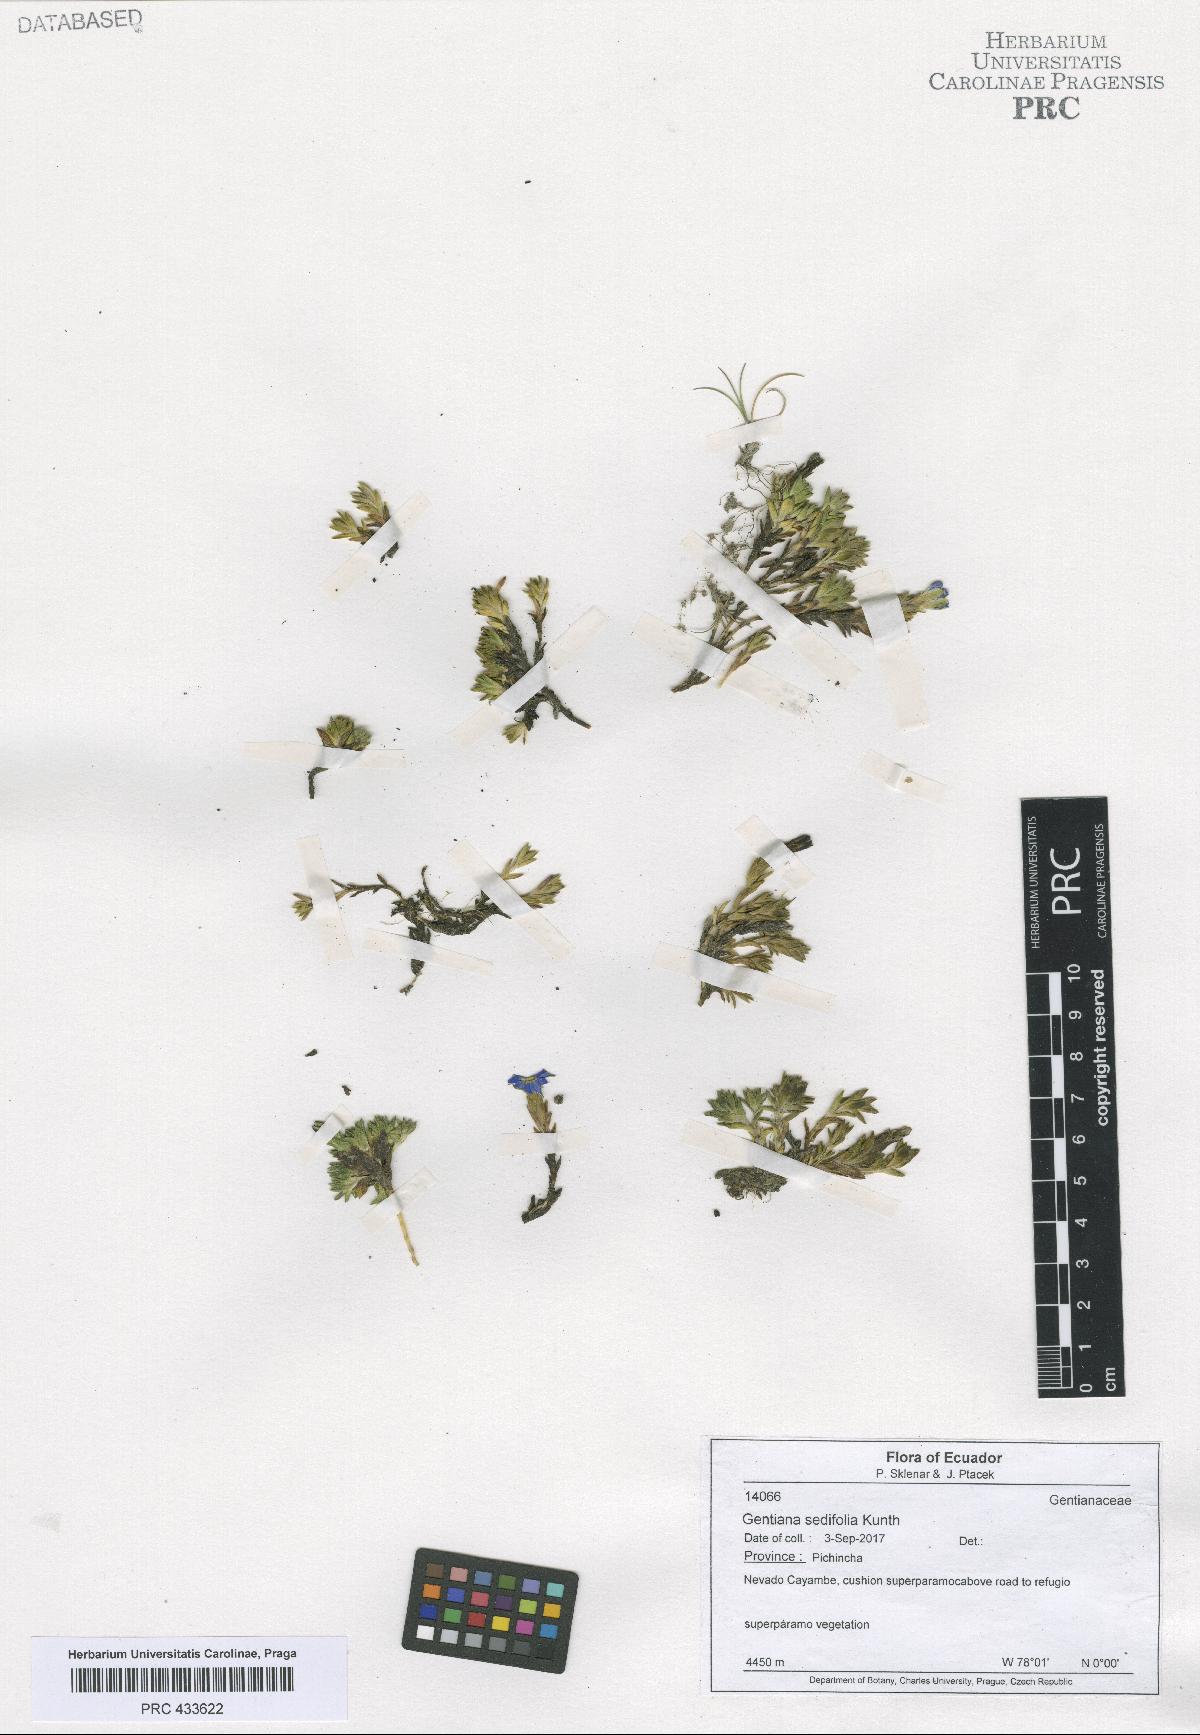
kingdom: Plantae
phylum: Tracheophyta
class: Magnoliopsida
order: Gentianales
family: Gentianaceae
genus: Gentianella
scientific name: Gentianella
